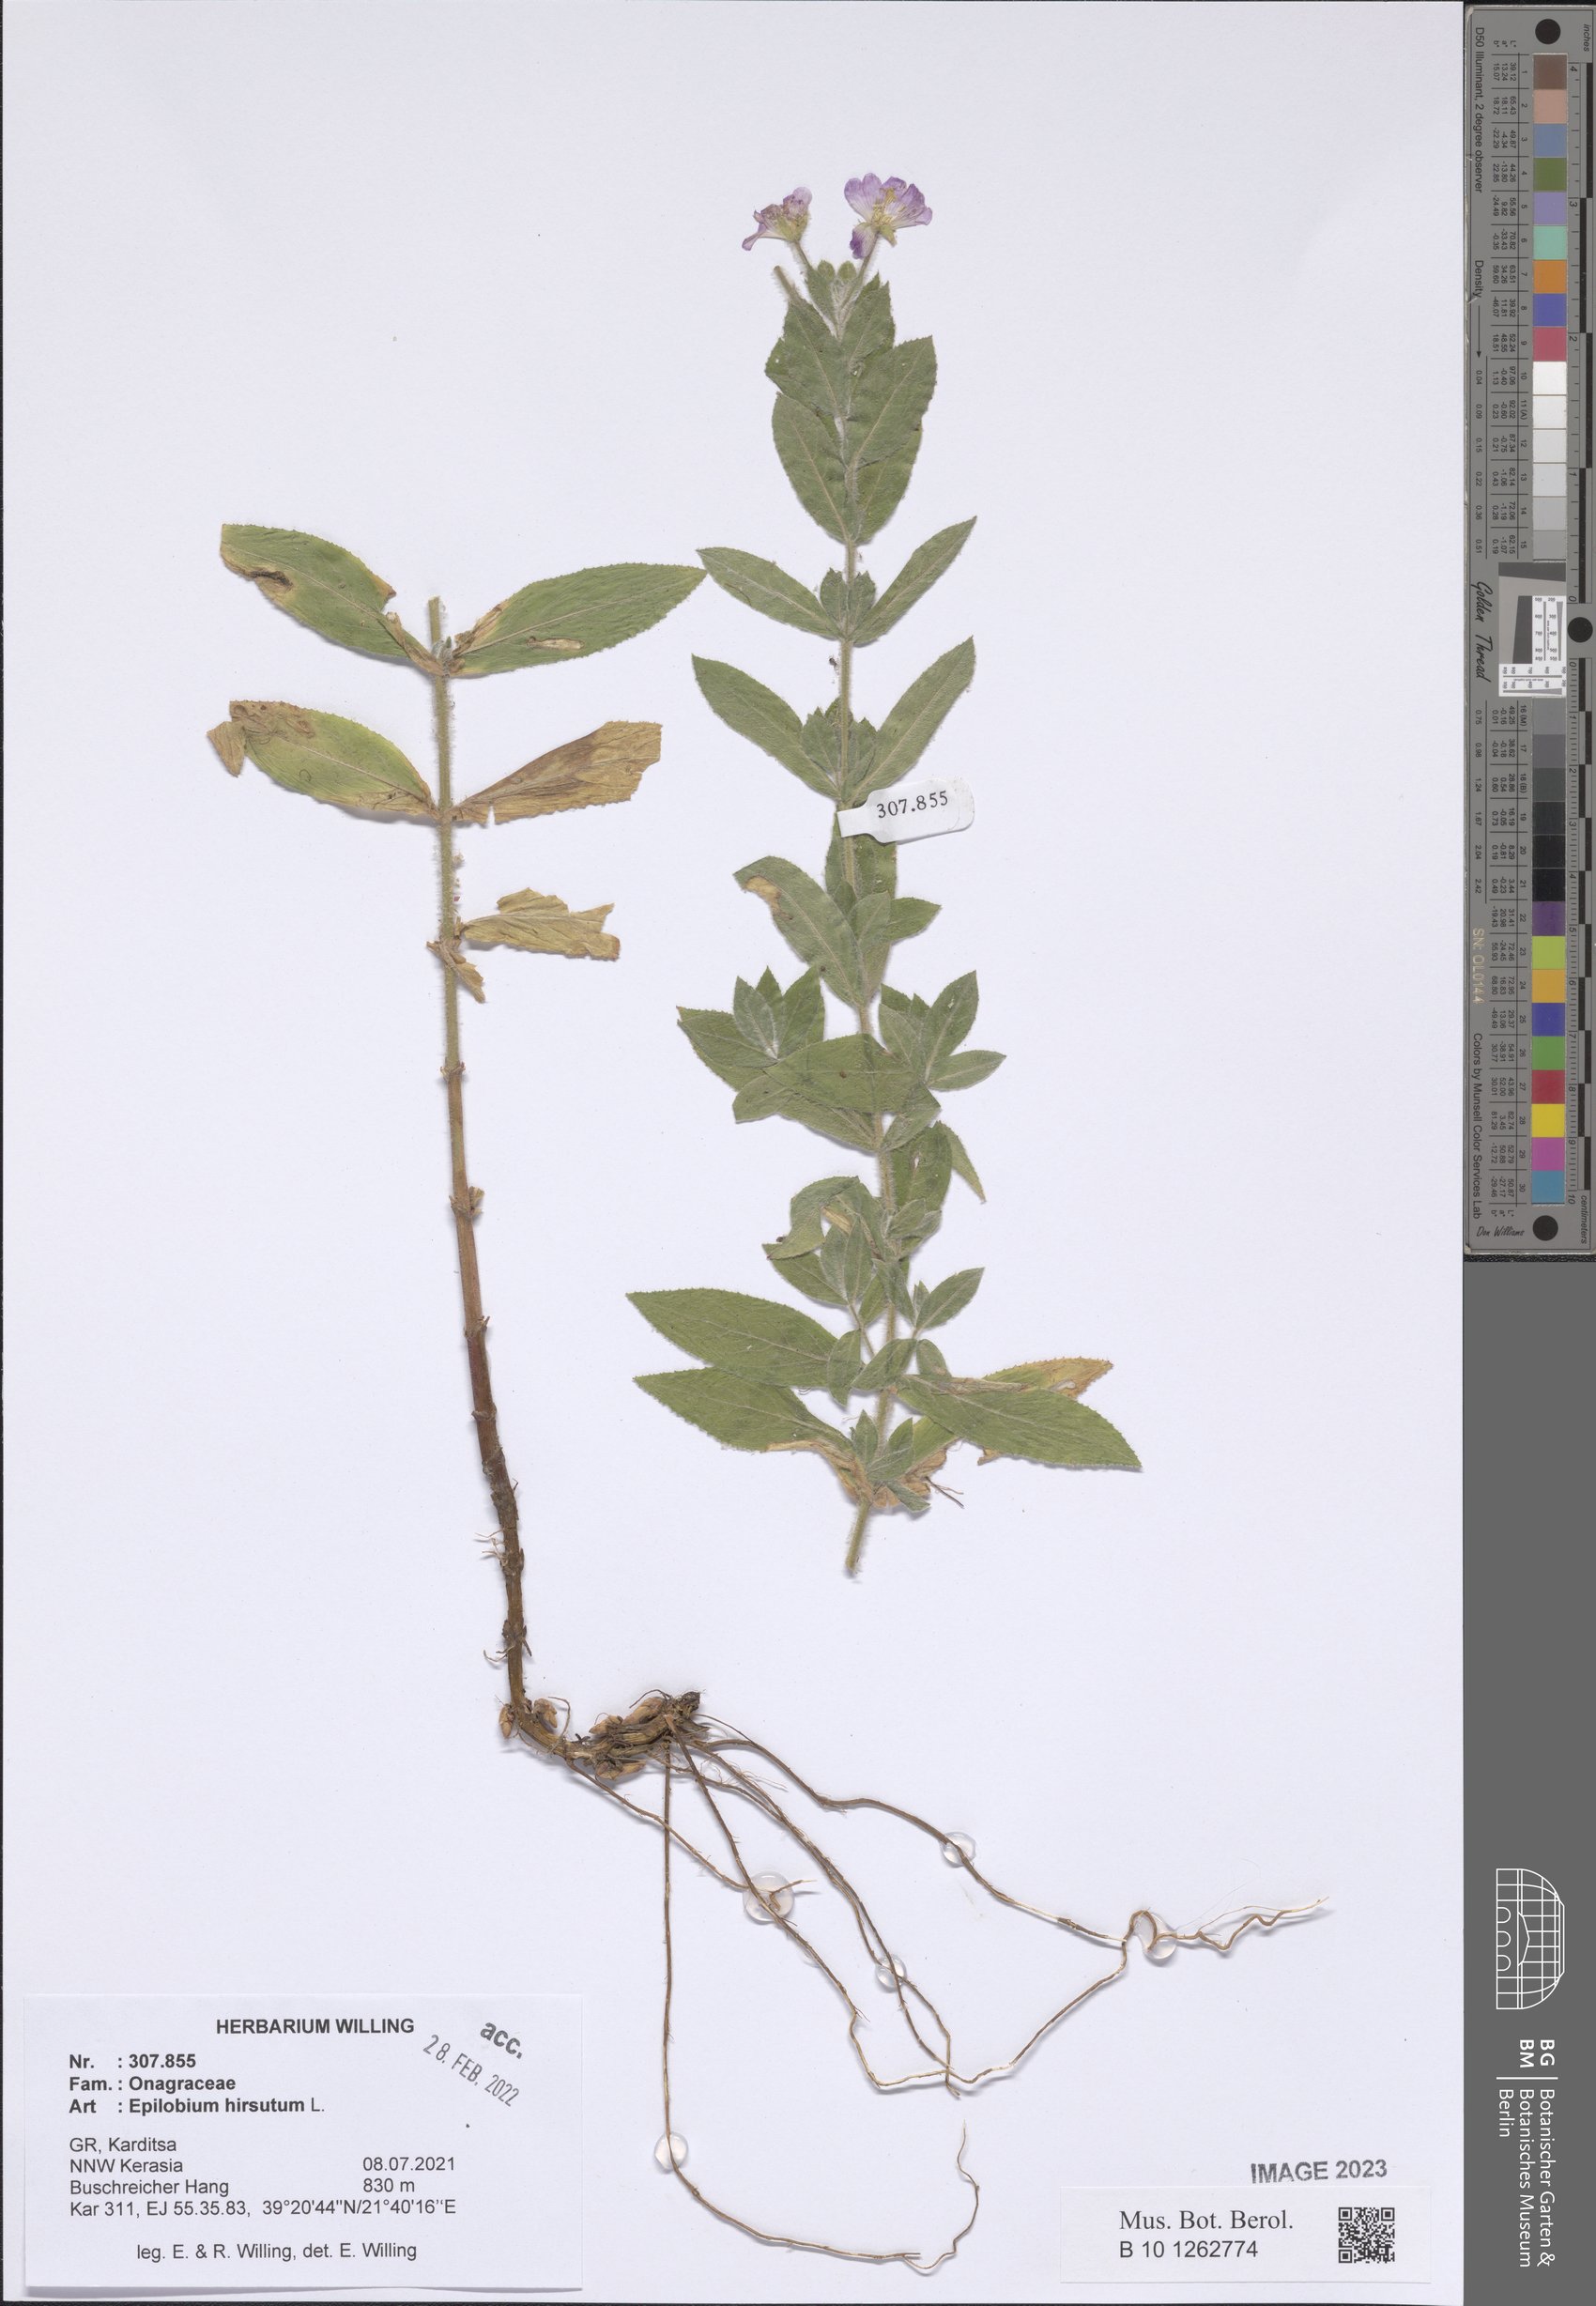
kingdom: Plantae
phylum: Tracheophyta
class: Magnoliopsida
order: Myrtales
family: Onagraceae
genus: Epilobium
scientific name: Epilobium hirsutum
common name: Great willowherb
